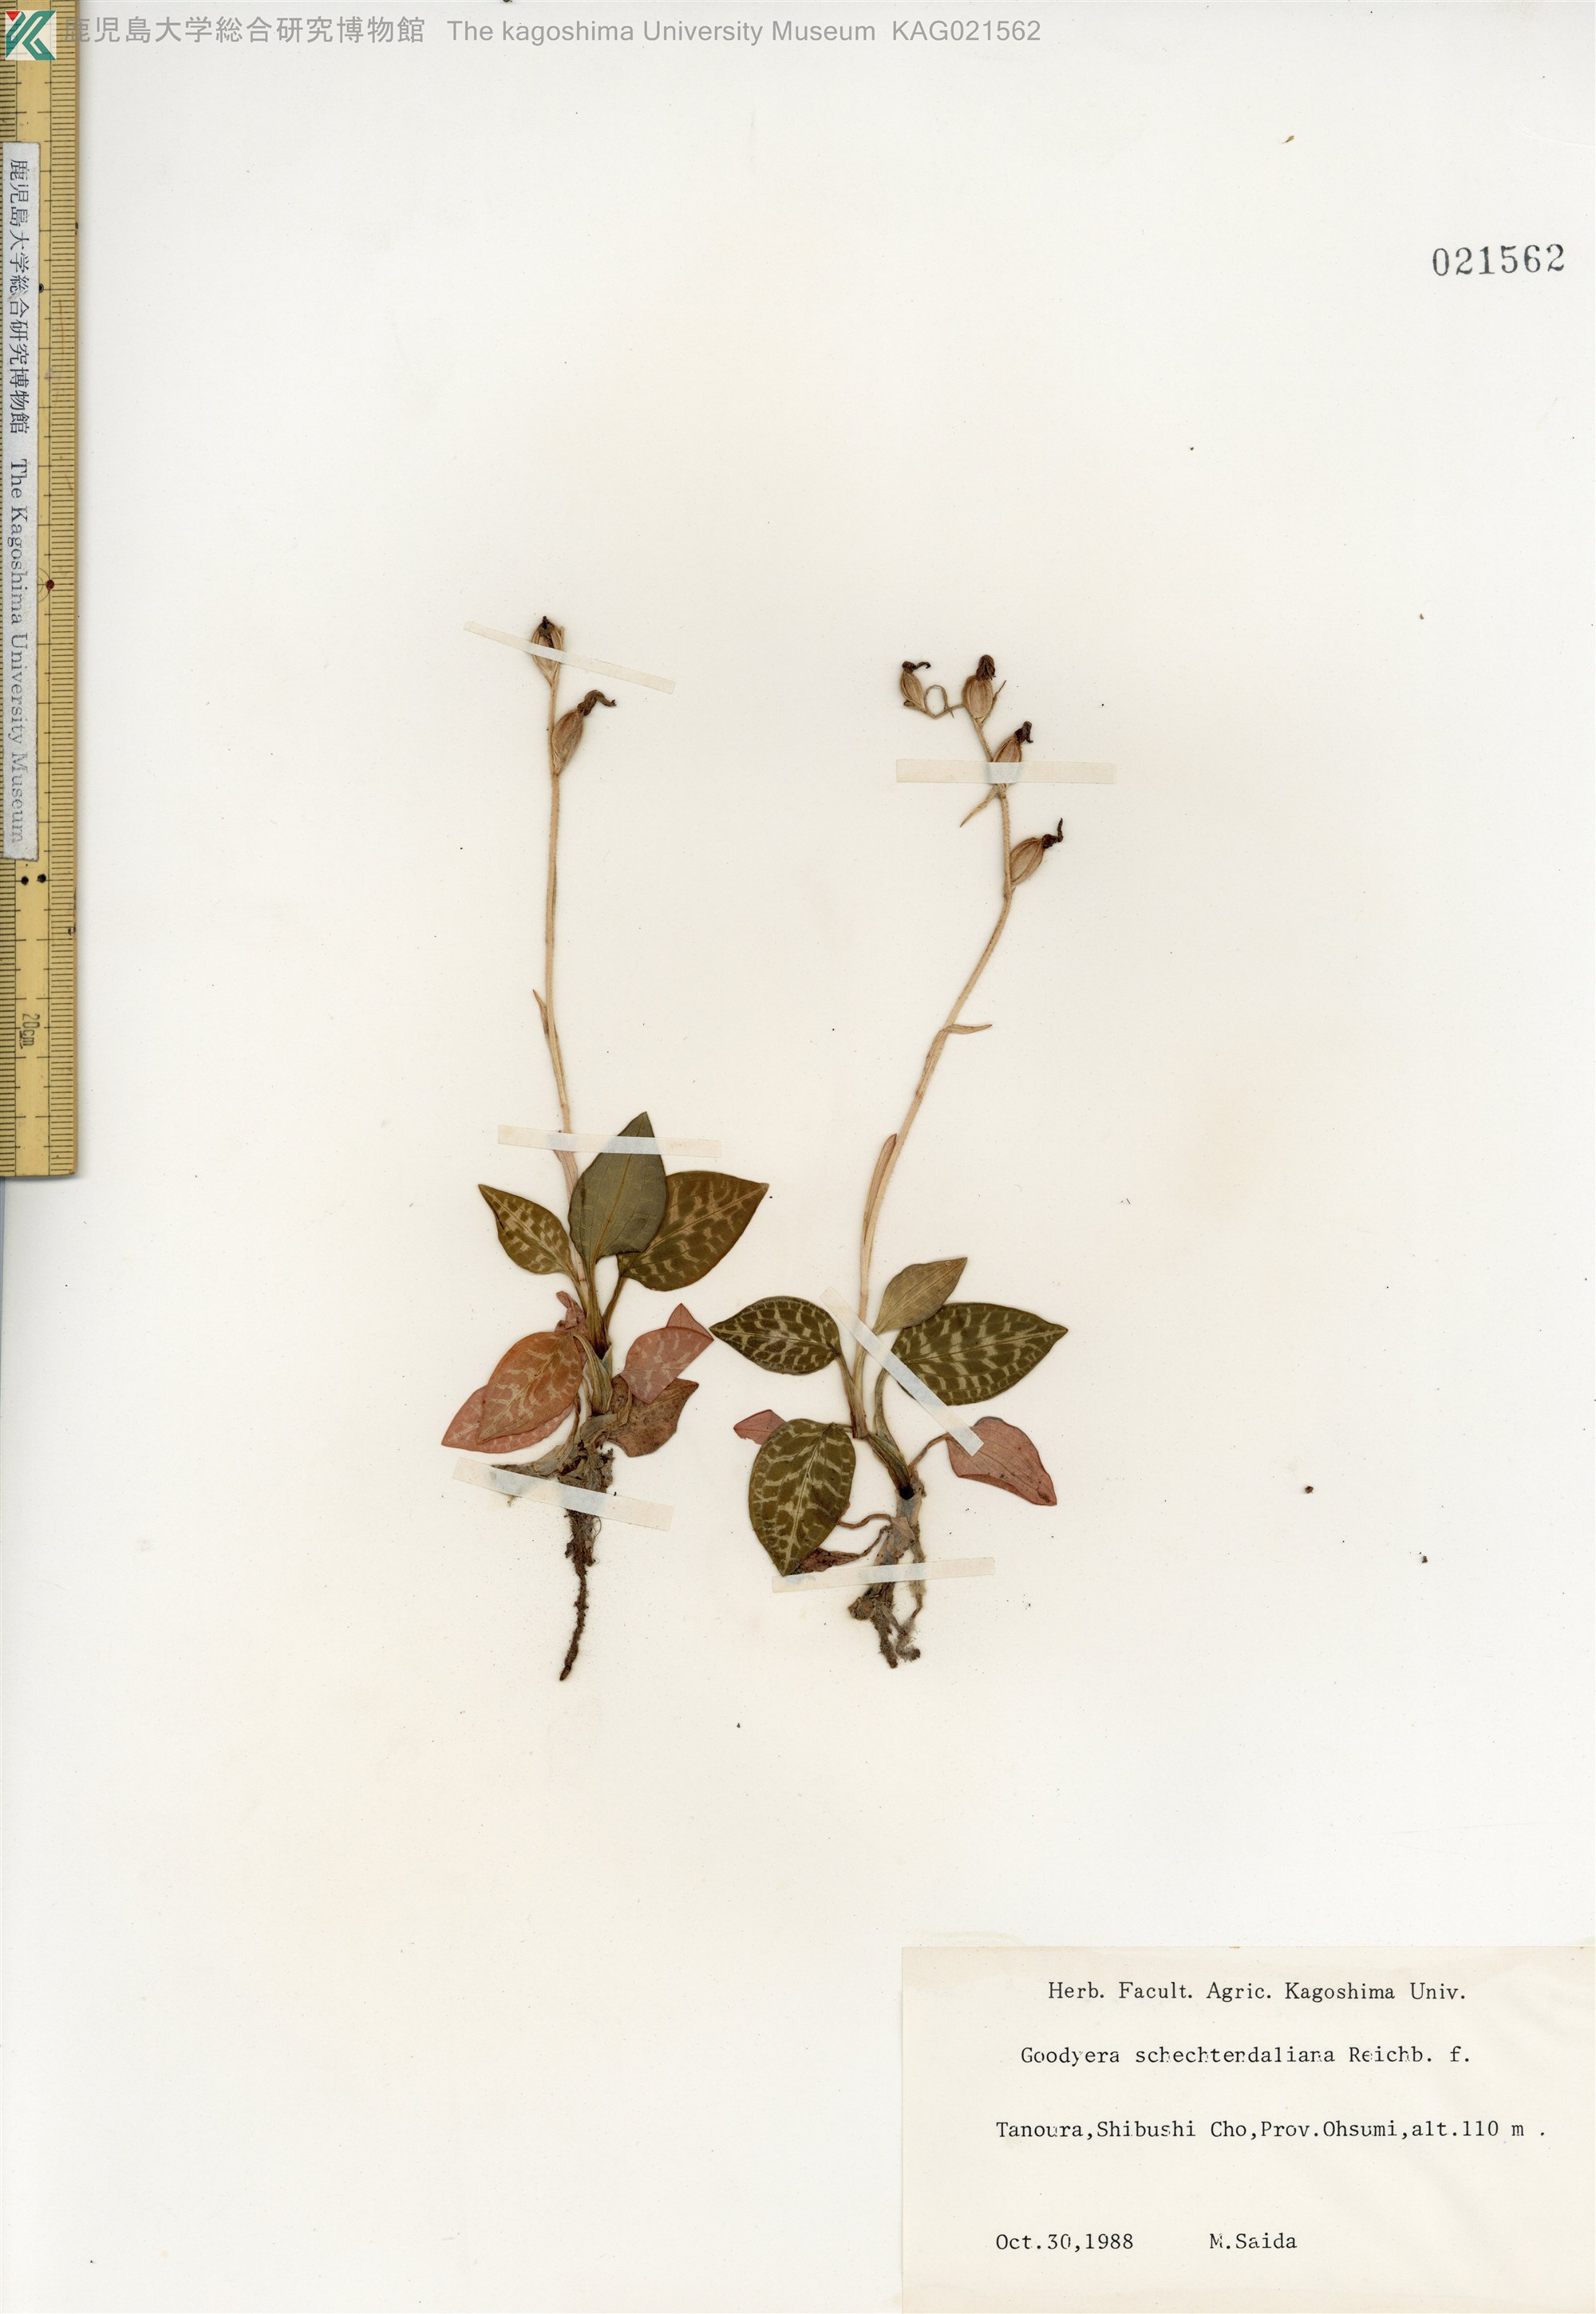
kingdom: Plantae
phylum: Tracheophyta
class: Liliopsida
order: Asparagales
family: Orchidaceae
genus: Goodyera
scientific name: Goodyera schlechtendaliana
